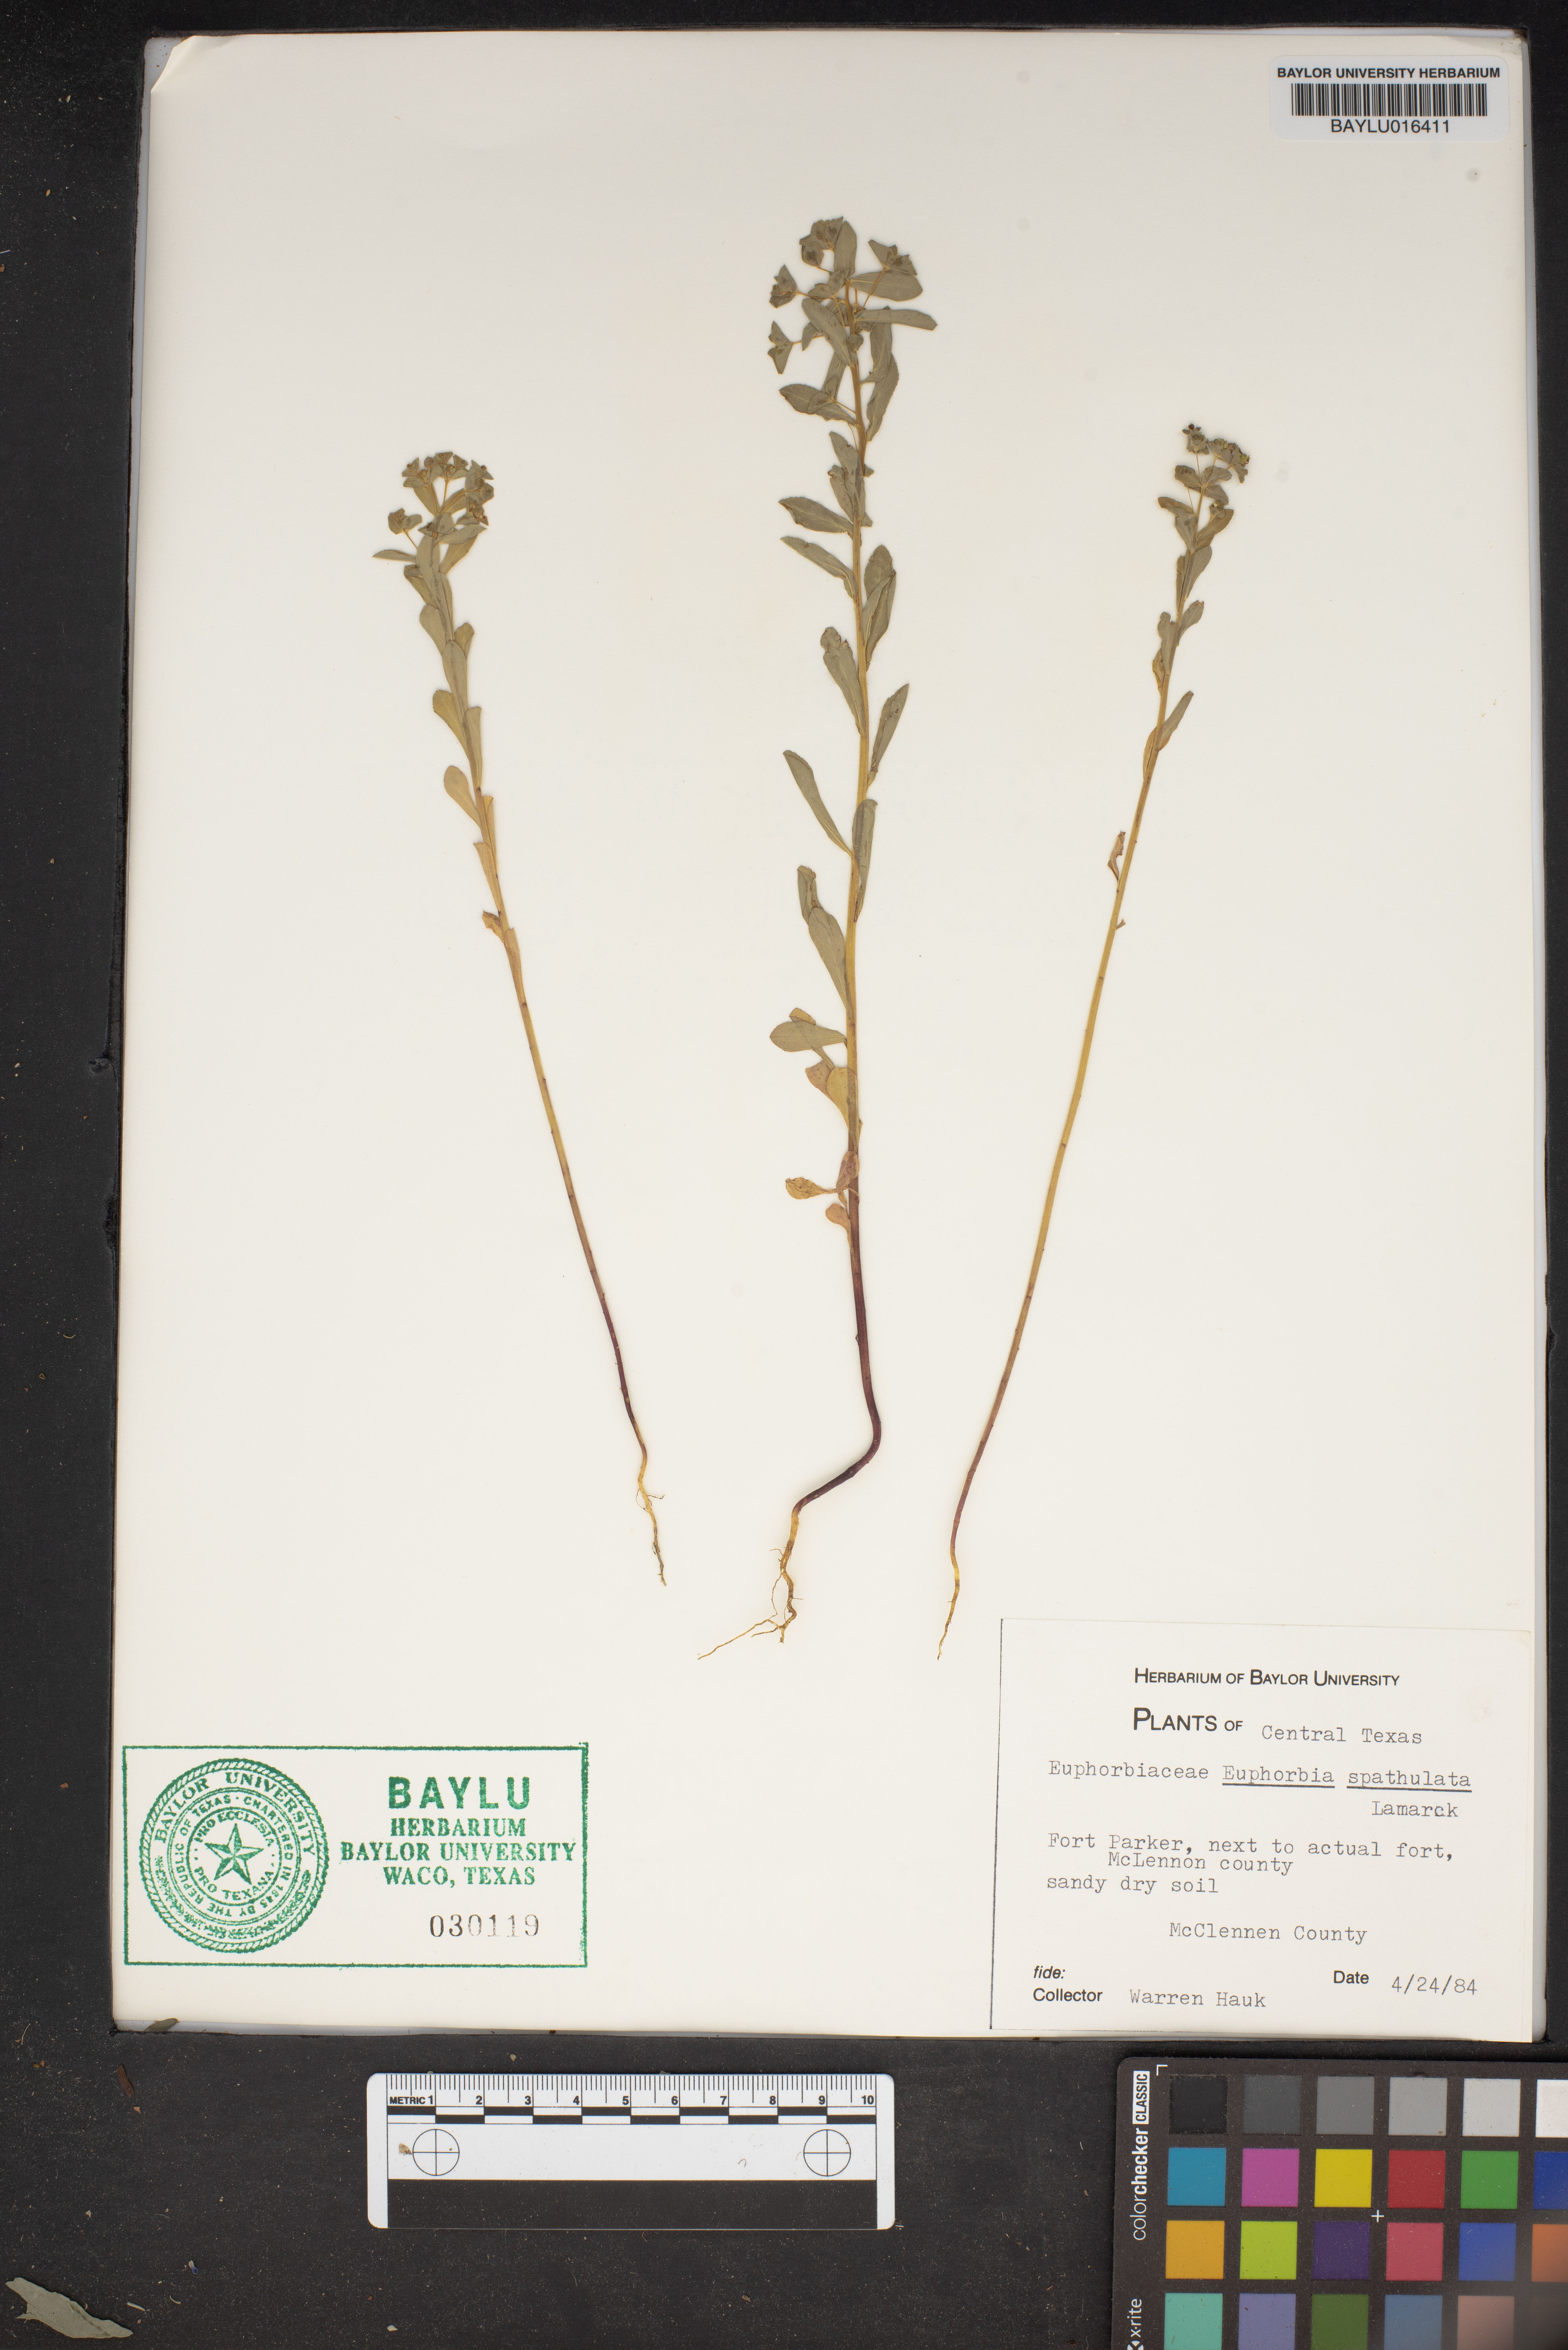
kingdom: Plantae
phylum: Tracheophyta
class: Magnoliopsida
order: Malpighiales
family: Euphorbiaceae
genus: Euphorbia
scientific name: Euphorbia spathulata
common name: Blunt spurge
